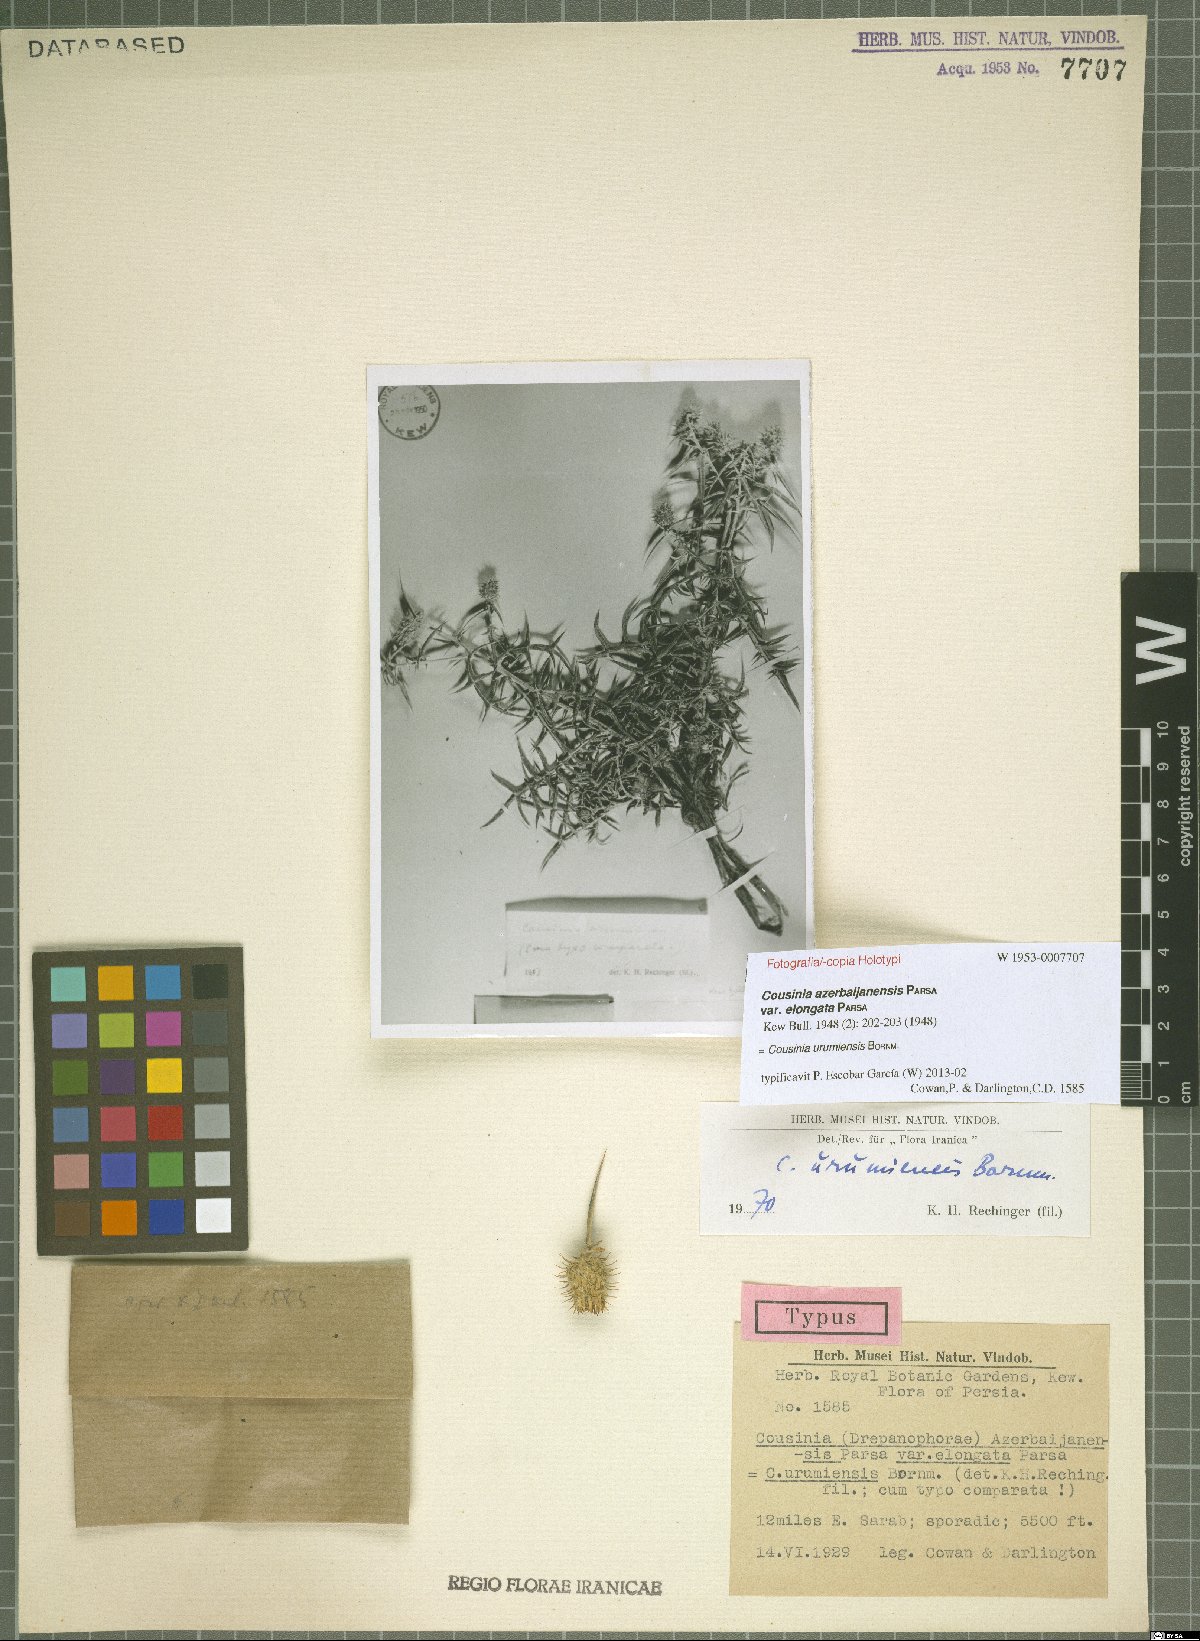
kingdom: Plantae
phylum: Tracheophyta
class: Magnoliopsida
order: Asterales
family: Asteraceae
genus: Cousinia
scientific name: Cousinia urumiensis
